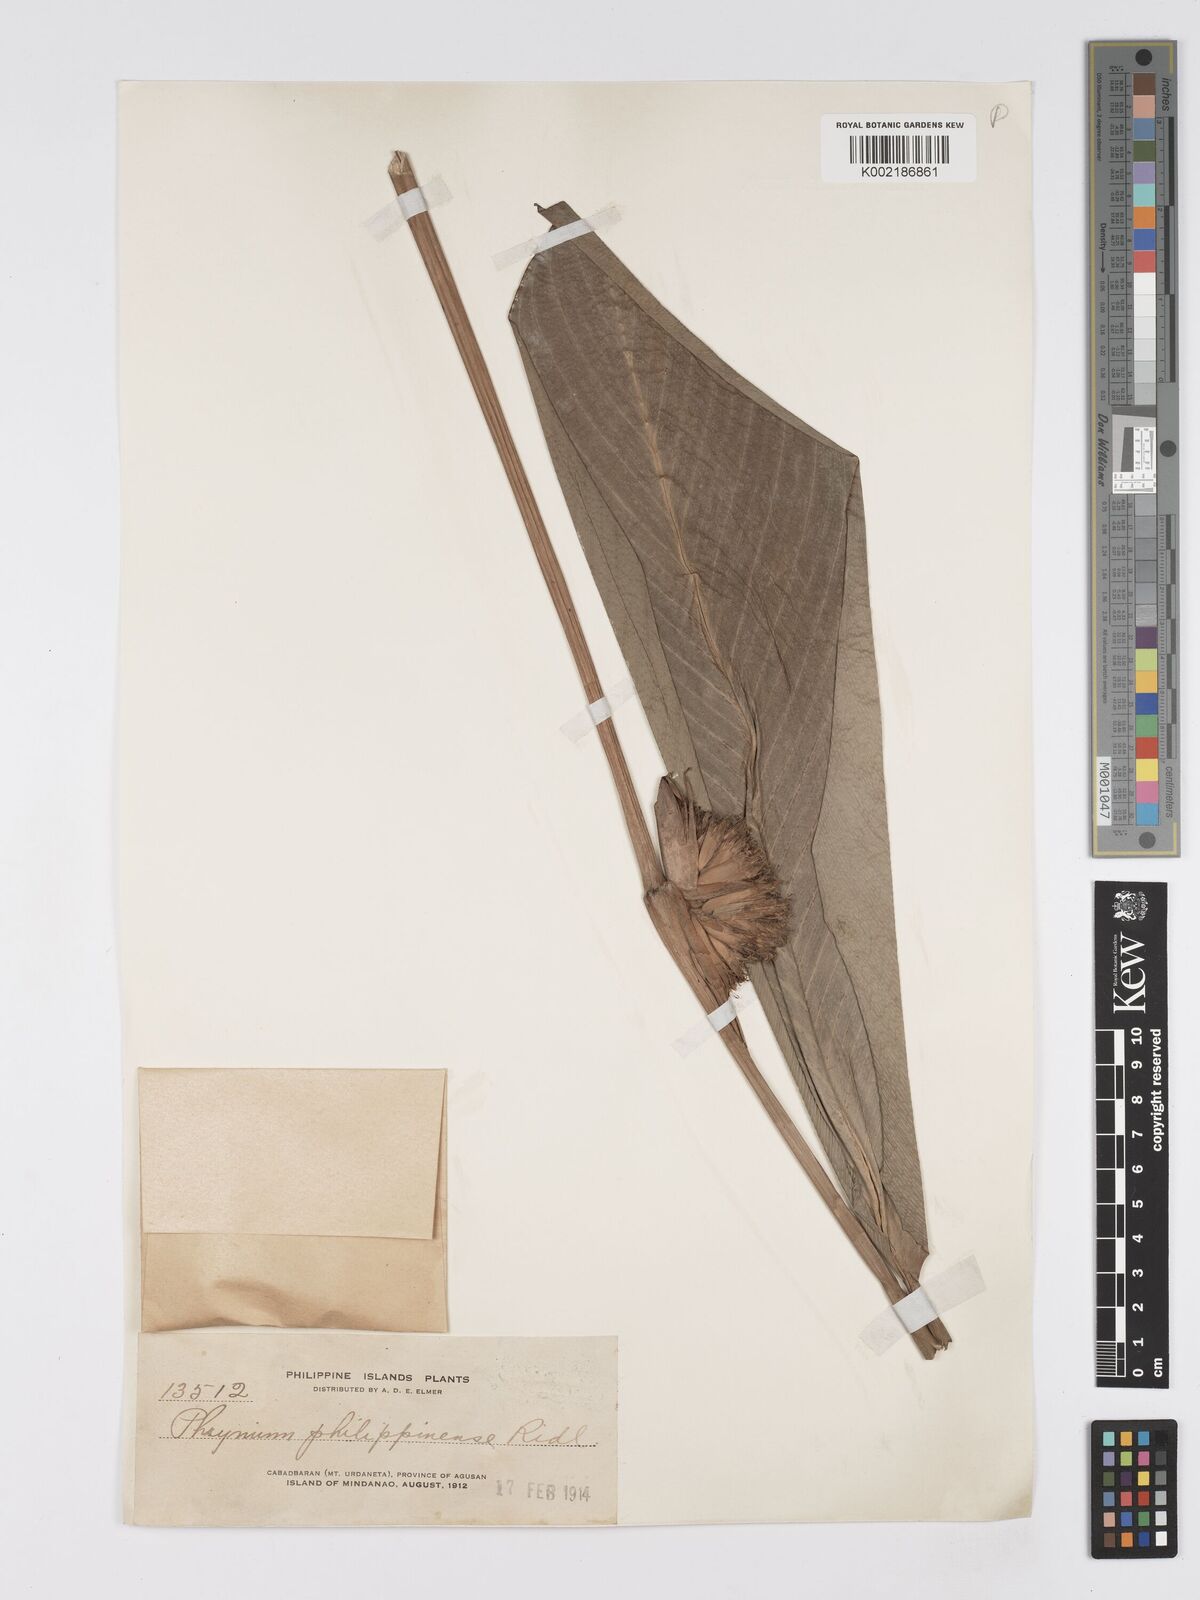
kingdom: Plantae
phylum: Tracheophyta
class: Liliopsida
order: Zingiberales
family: Marantaceae
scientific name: Marantaceae
